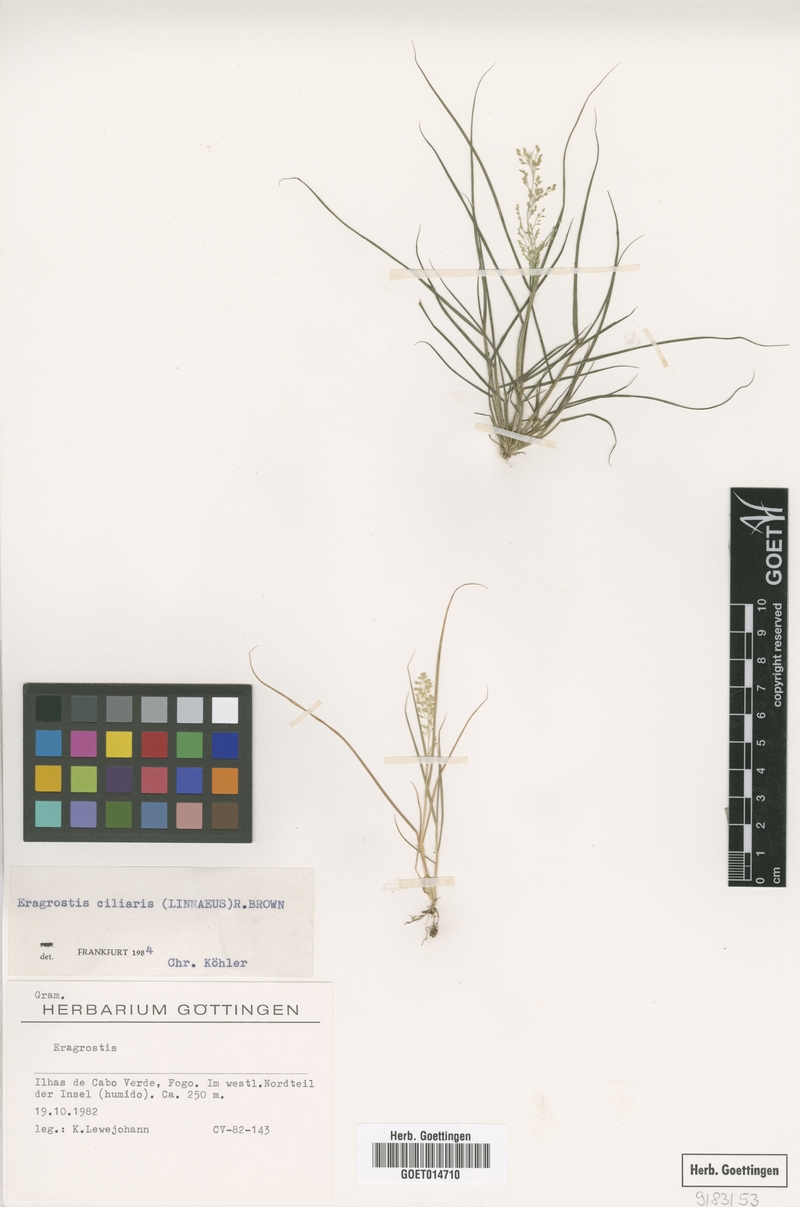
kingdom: Plantae
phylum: Tracheophyta
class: Liliopsida
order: Poales
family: Poaceae
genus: Eragrostis
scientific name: Eragrostis ciliaris
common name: Gophertail lovegrass
